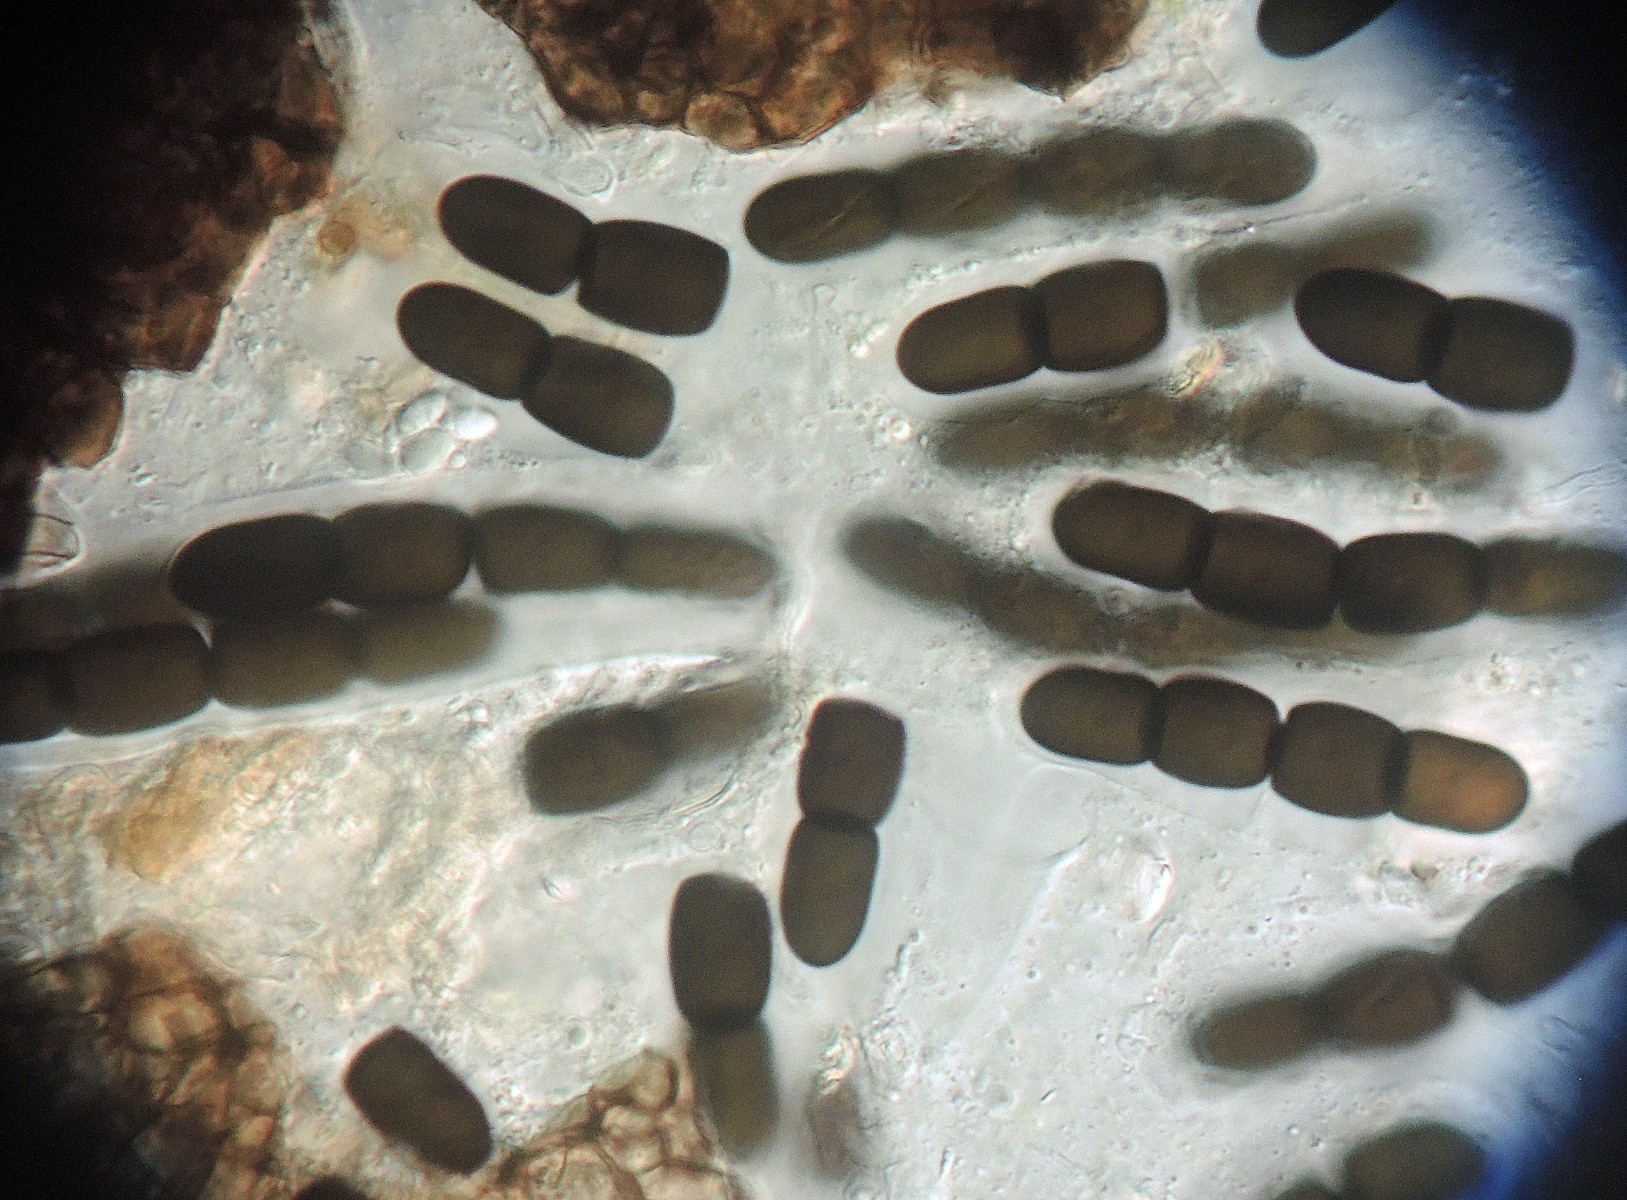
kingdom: Fungi
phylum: Ascomycota
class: Dothideomycetes
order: Pleosporales
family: Sporormiaceae
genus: Sporormiella
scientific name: Sporormiella intermedia
